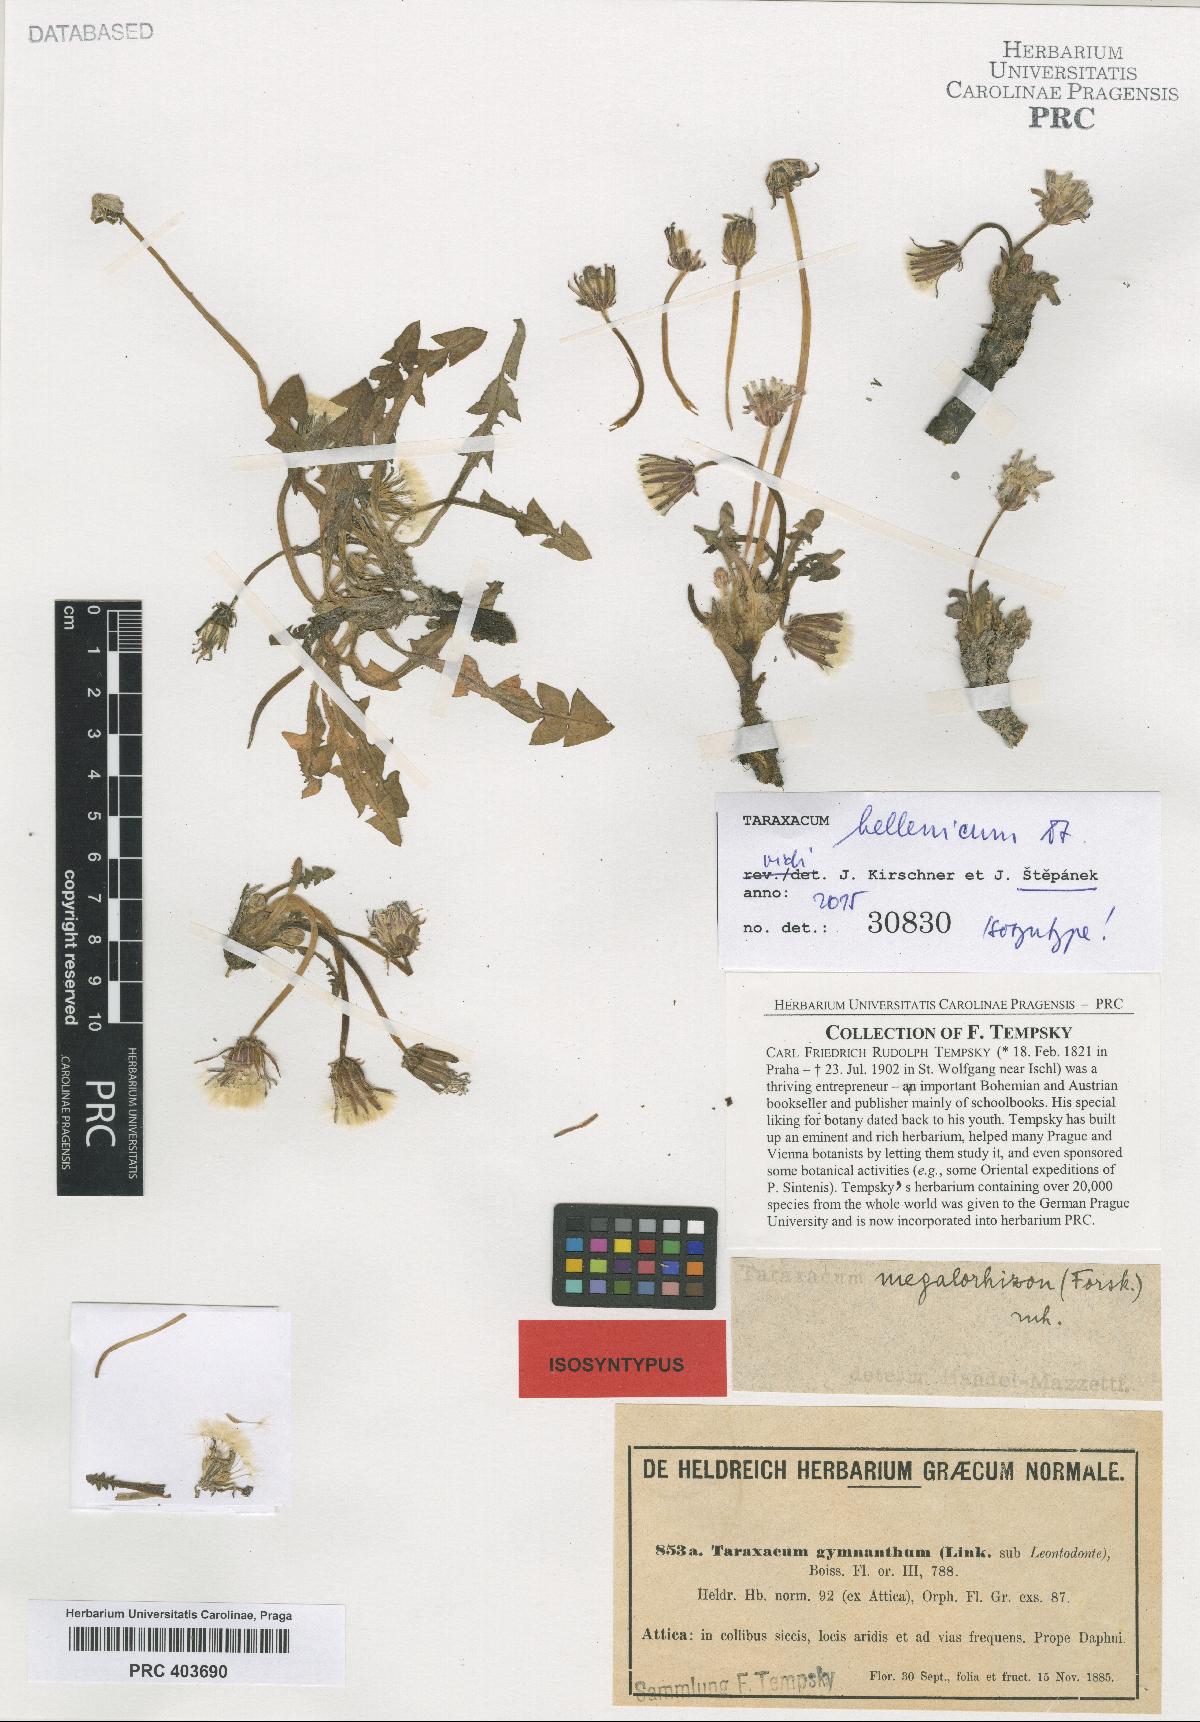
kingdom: Plantae
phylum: Tracheophyta
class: Magnoliopsida
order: Asterales
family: Asteraceae
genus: Taraxacum
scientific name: Taraxacum hellenicum
